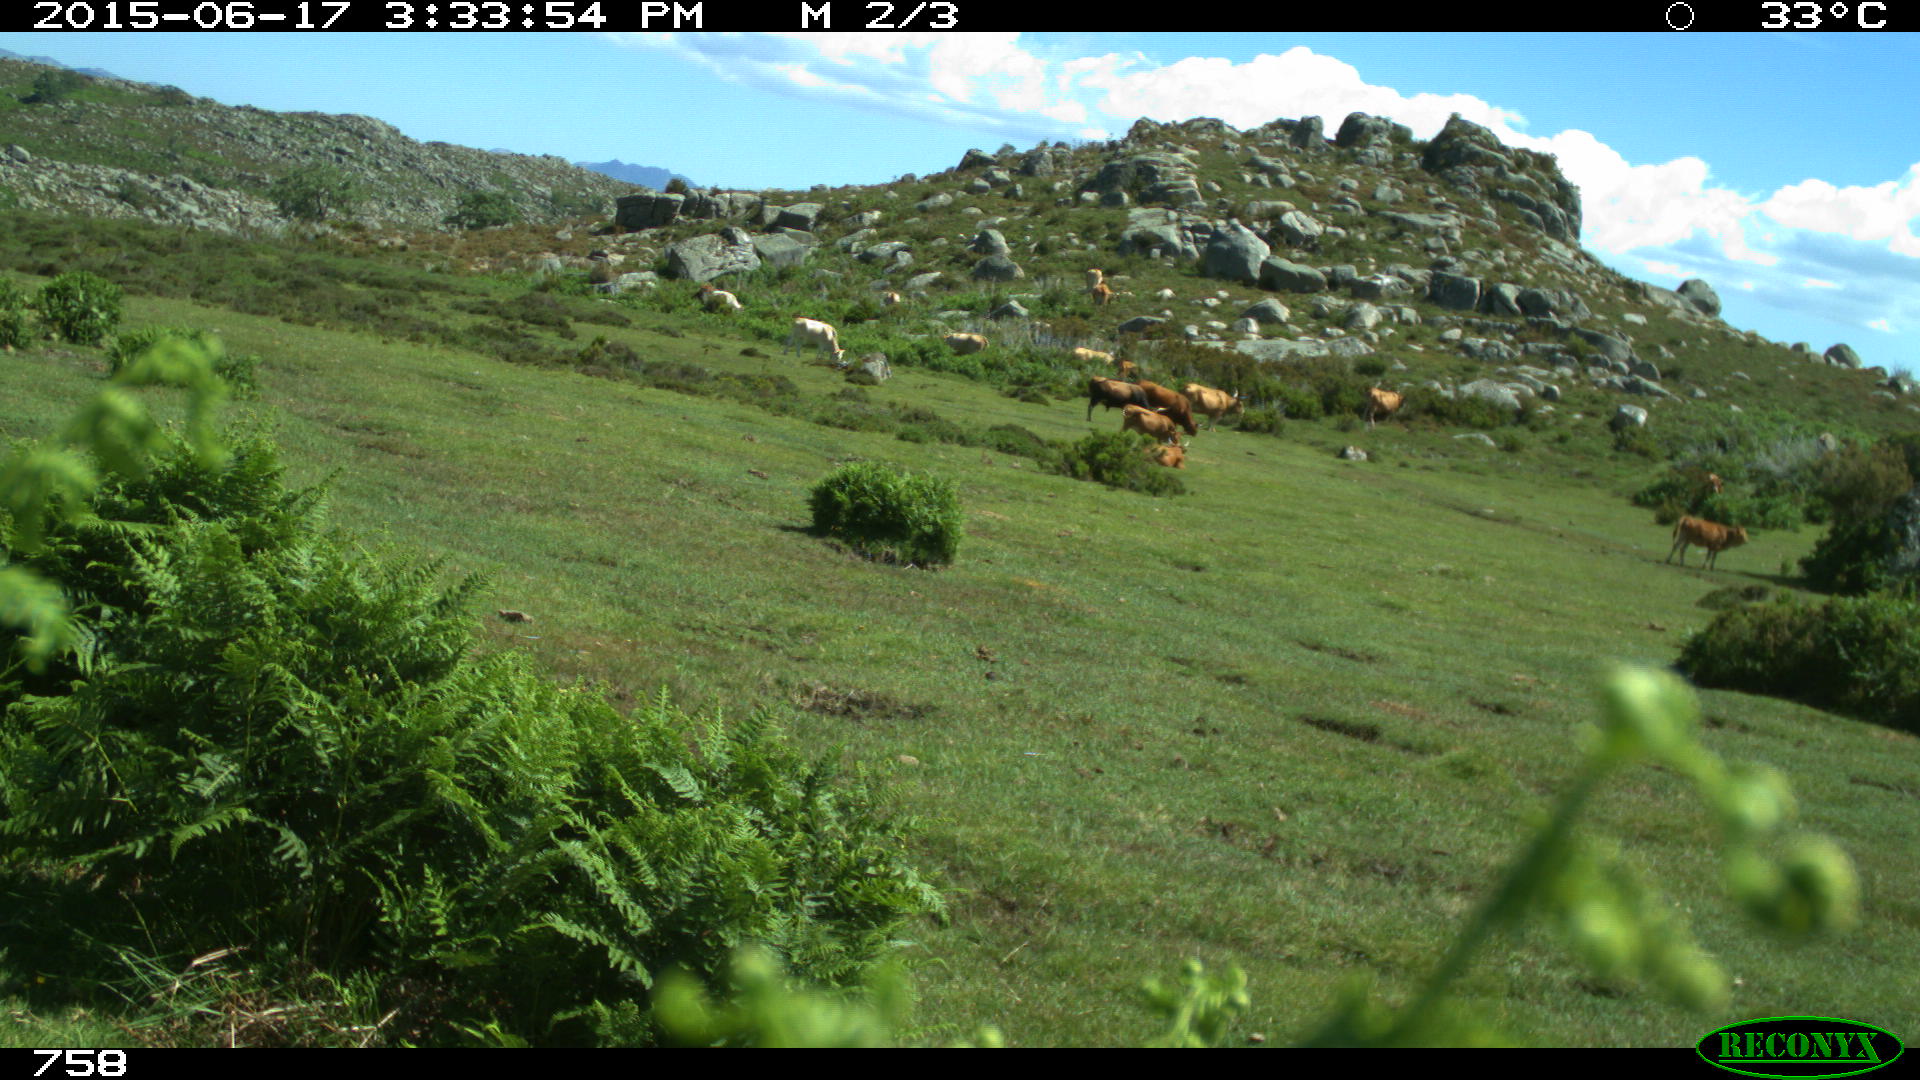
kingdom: Animalia
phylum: Chordata
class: Mammalia
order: Artiodactyla
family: Bovidae
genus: Bos
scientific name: Bos taurus
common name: Domesticated cattle
